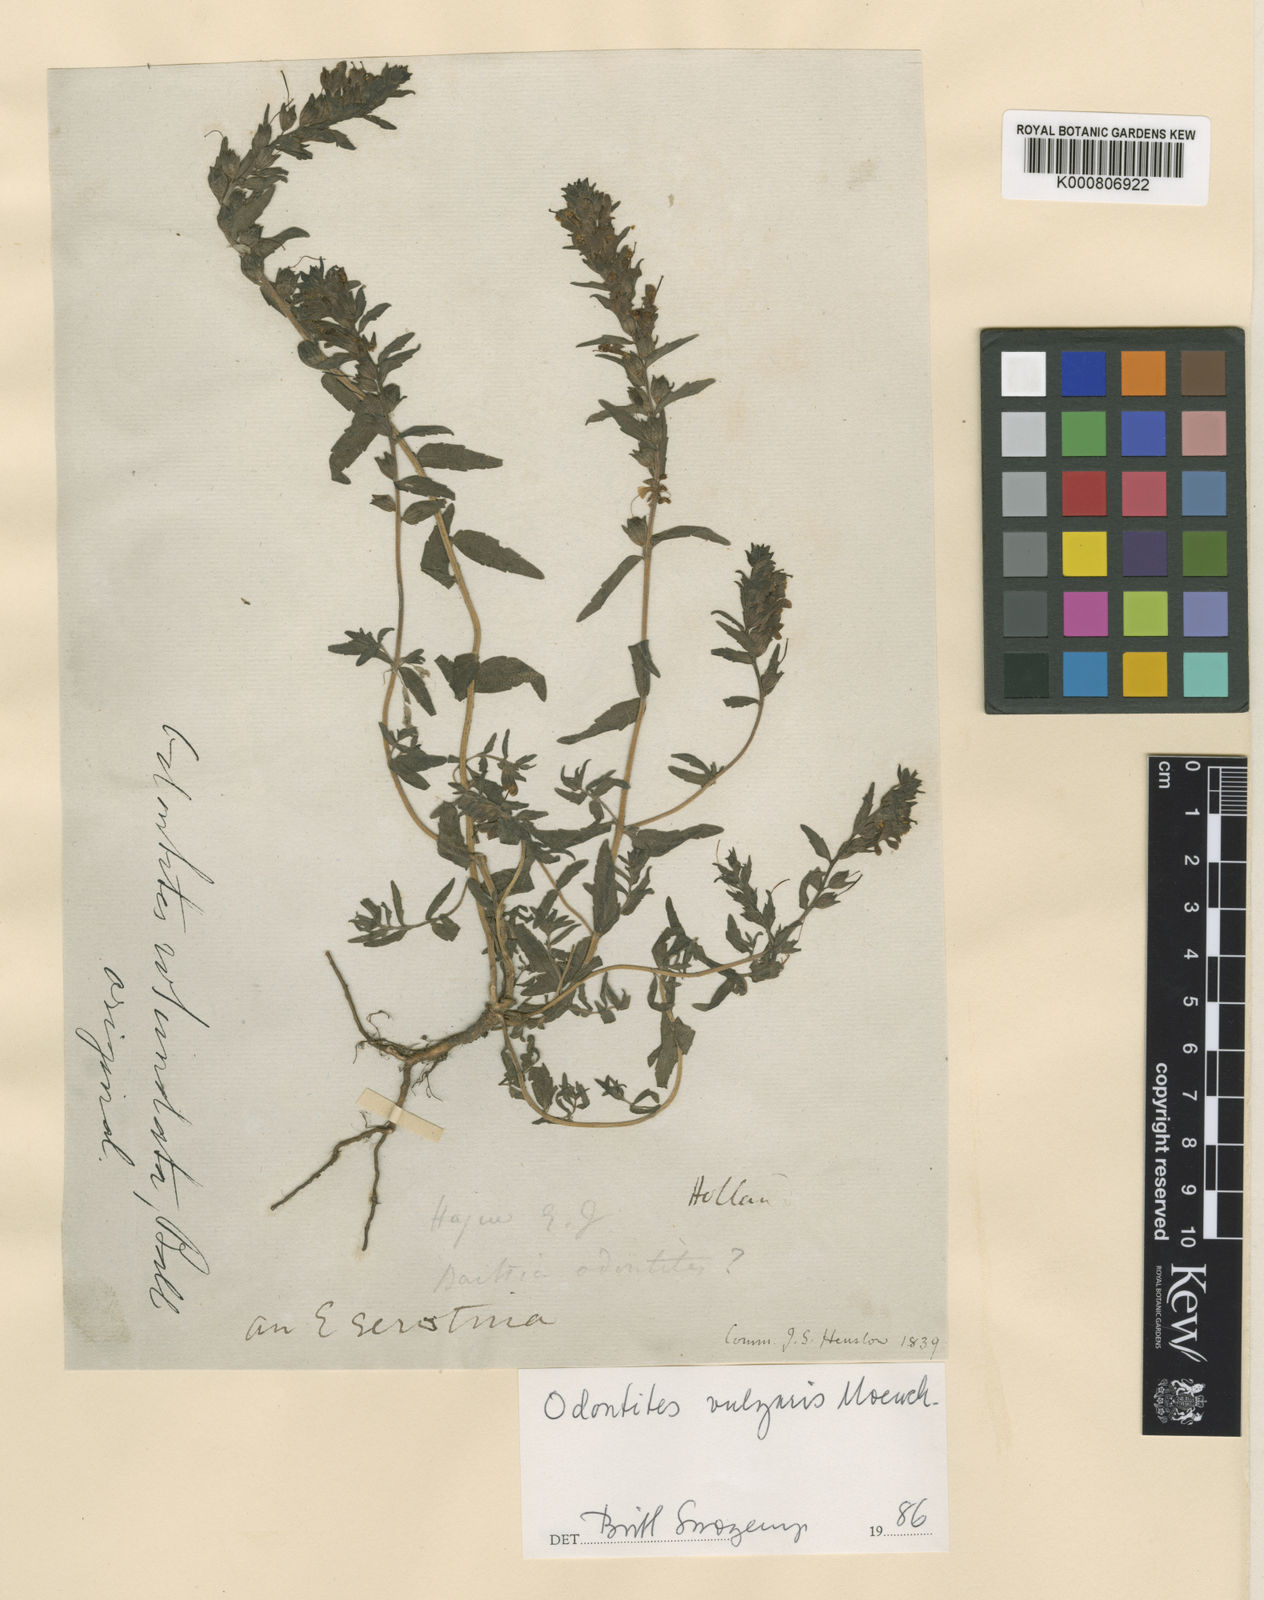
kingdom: Plantae
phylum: Tracheophyta
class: Magnoliopsida
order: Lamiales
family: Orobanchaceae
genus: Odontites
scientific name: Odontites vulgaris
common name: Broomrape
